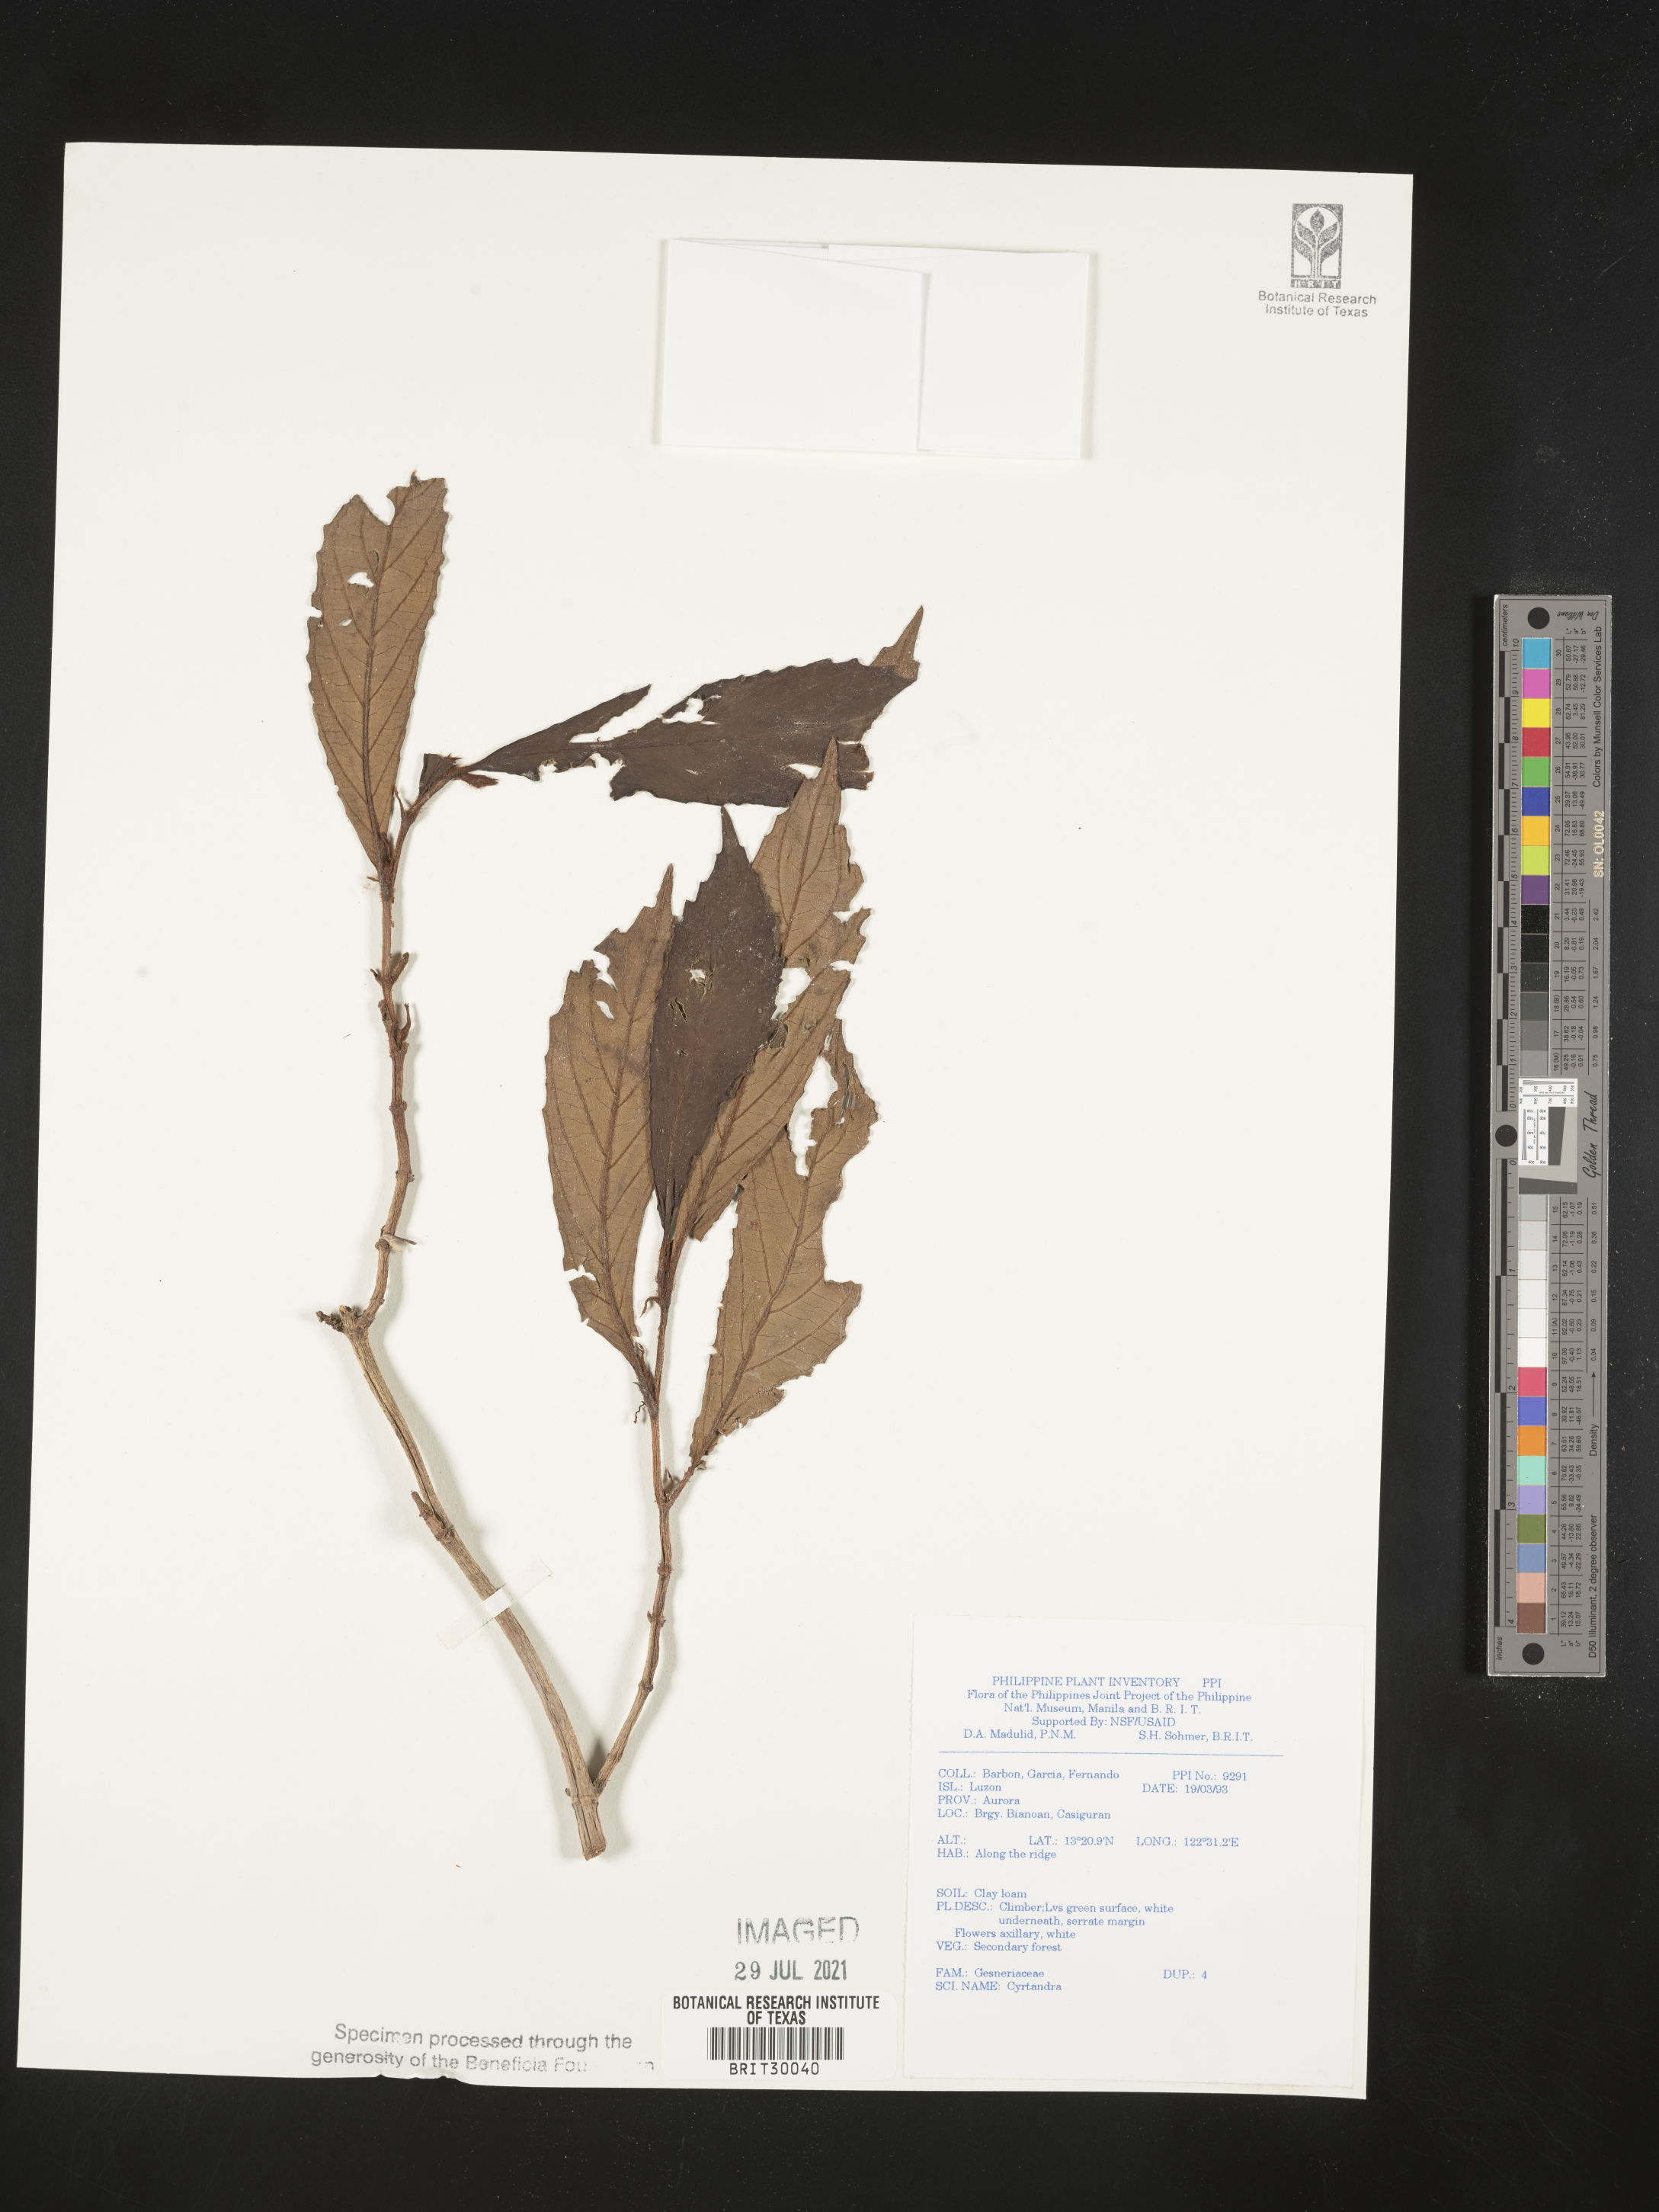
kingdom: Plantae
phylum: Tracheophyta
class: Magnoliopsida
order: Lamiales
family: Gesneriaceae
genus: Cyrtandra
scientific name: Cyrtandra
